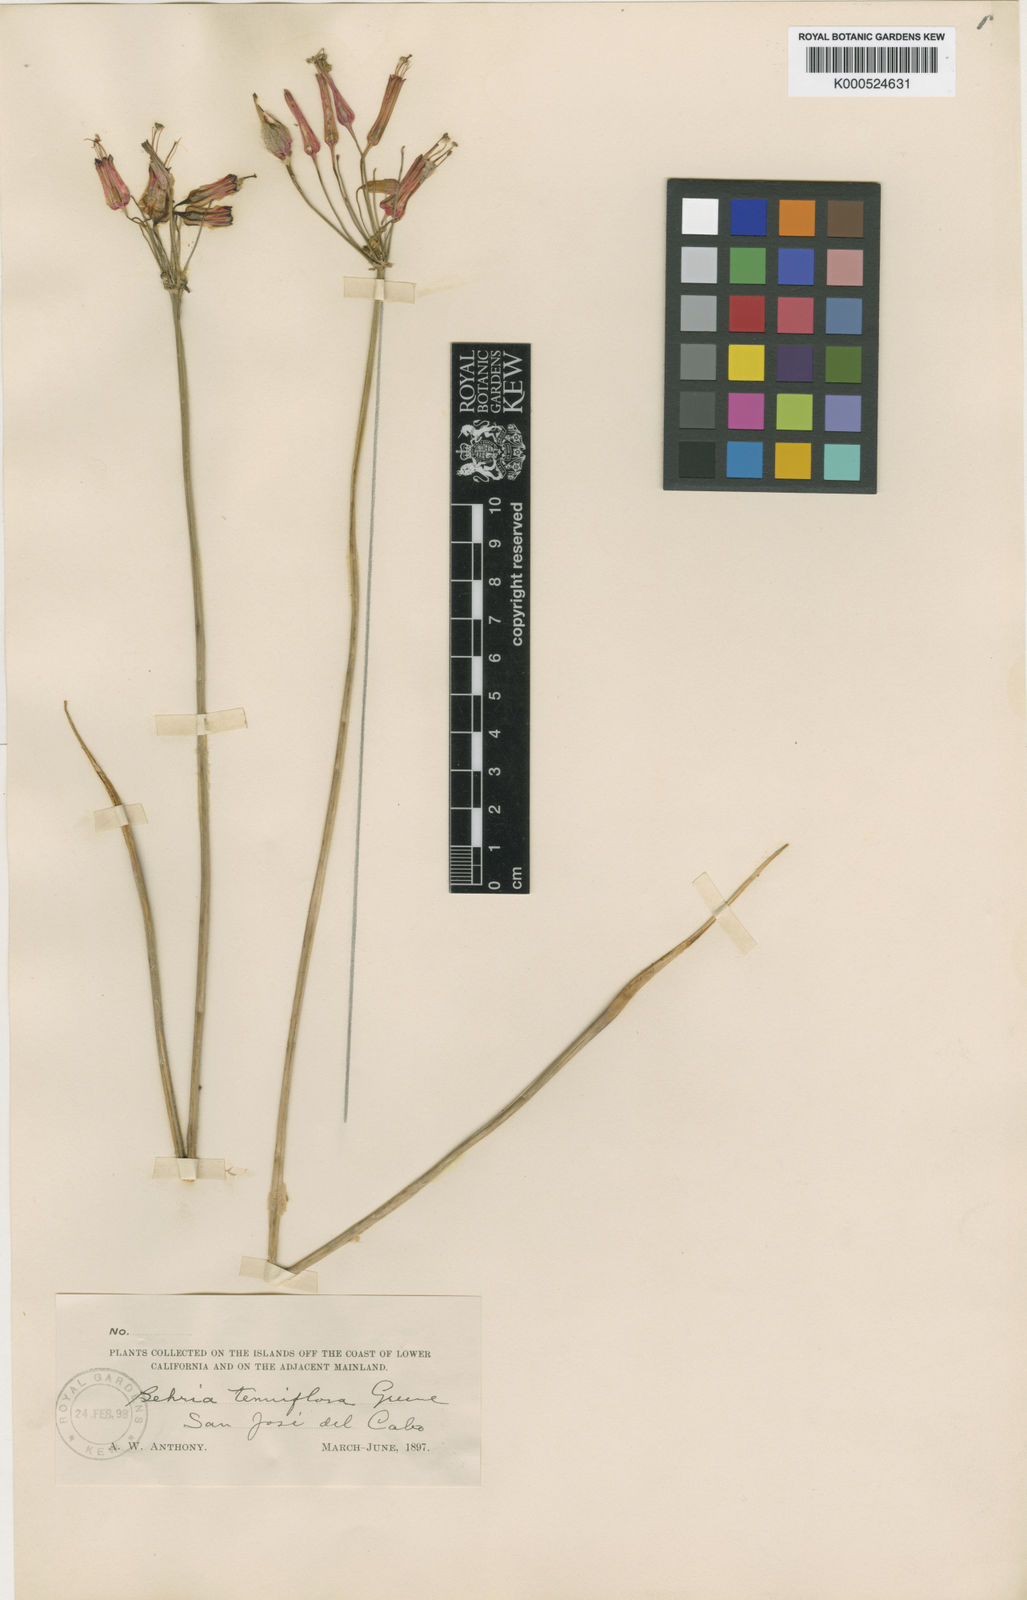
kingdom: Plantae
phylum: Tracheophyta
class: Liliopsida
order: Asparagales
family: Asparagaceae
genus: Bessera
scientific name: Bessera tenuiflora
